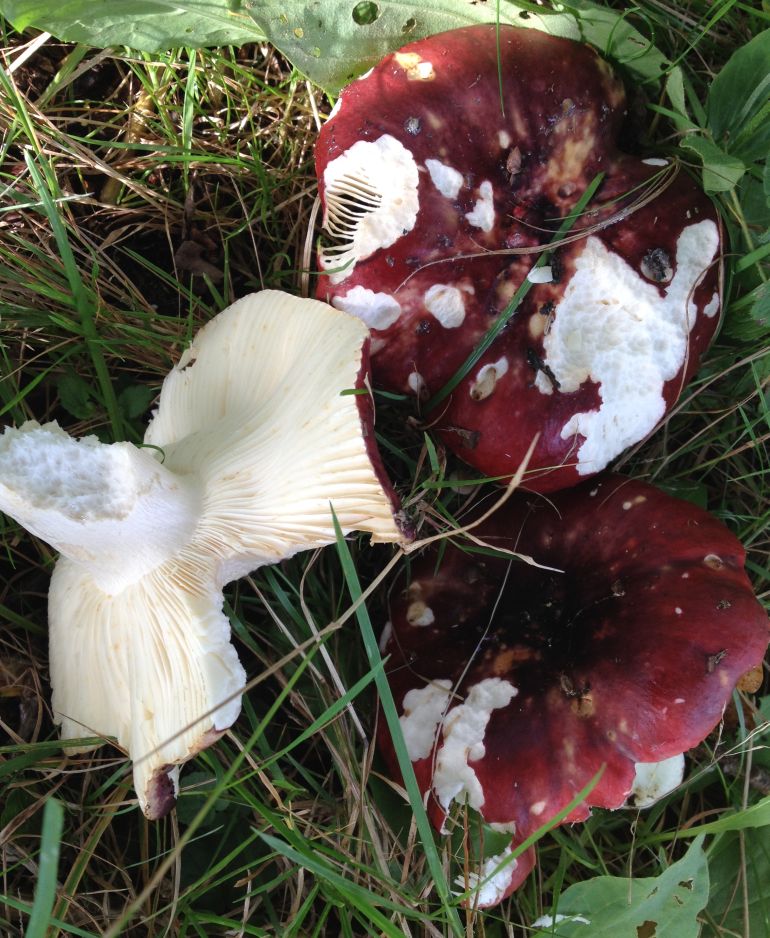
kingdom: Fungi
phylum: Basidiomycota
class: Agaricomycetes
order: Russulales
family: Russulaceae
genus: Russula
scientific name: Russula atropurpurea
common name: purpurbroget skørhat
